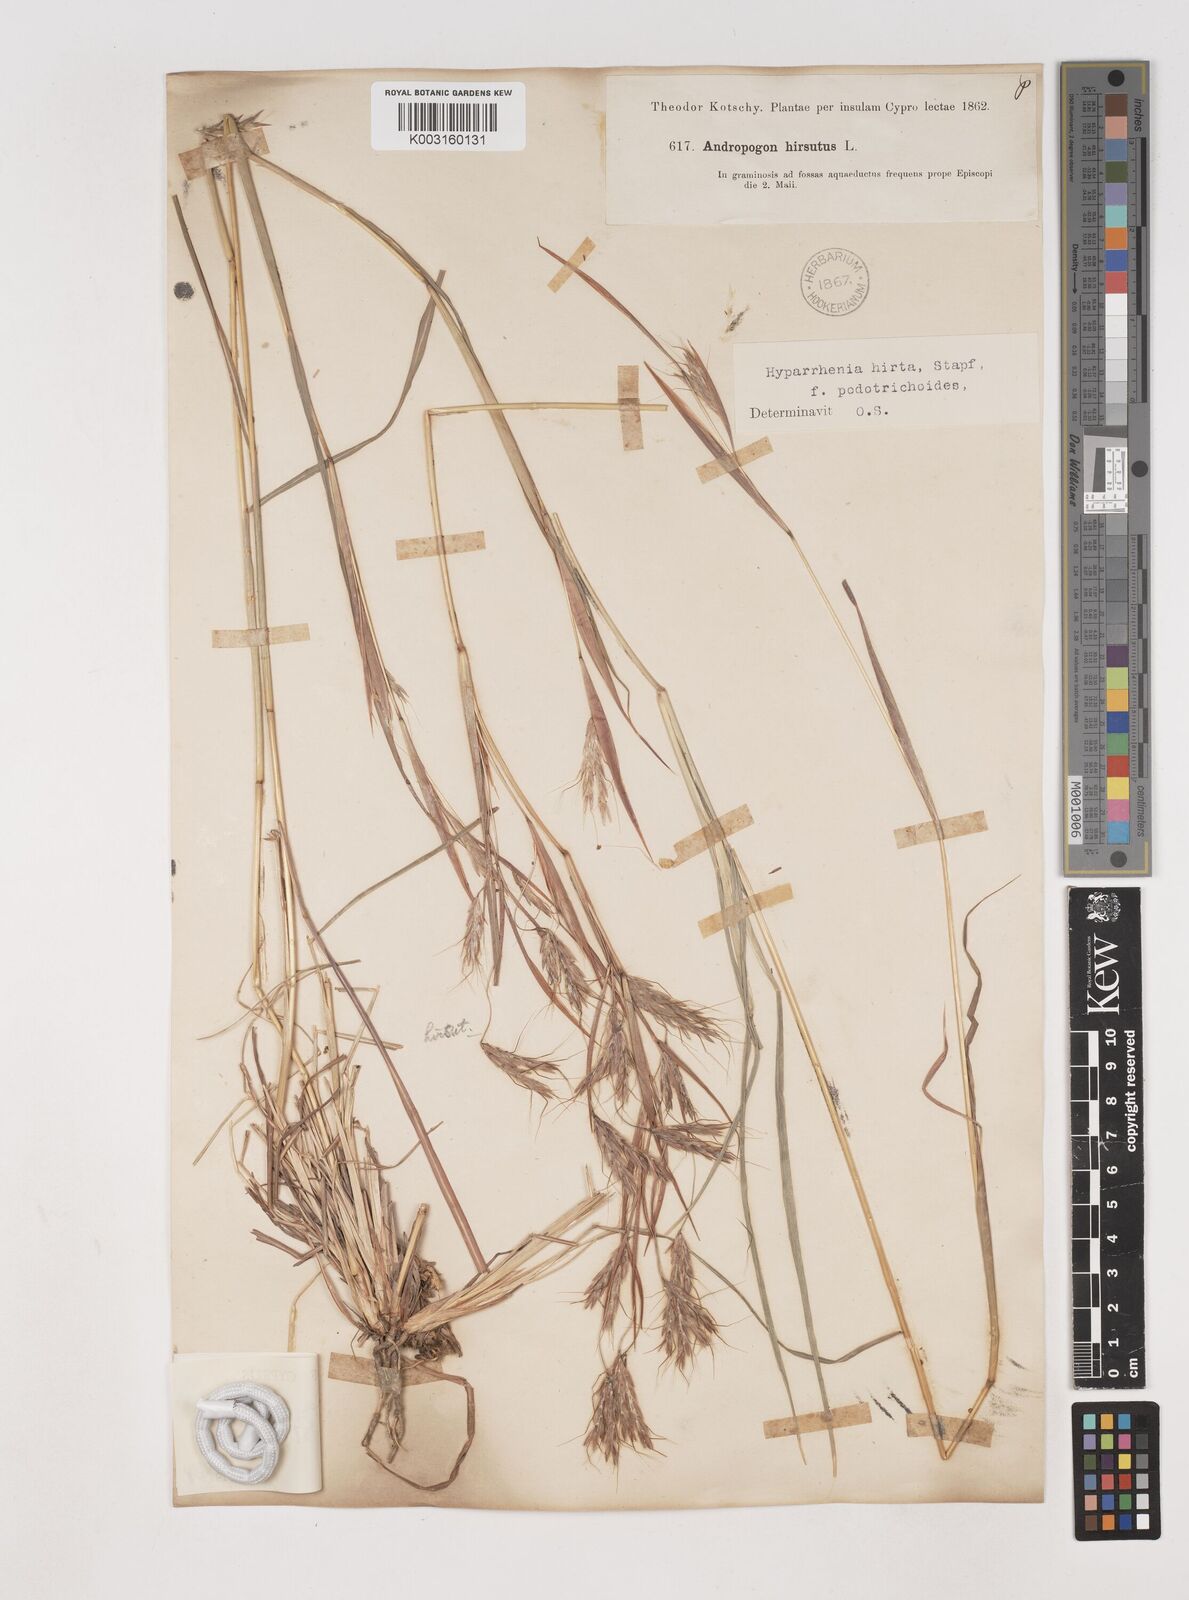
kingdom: Plantae
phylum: Tracheophyta
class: Liliopsida
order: Poales
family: Poaceae
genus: Hyparrhenia
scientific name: Hyparrhenia hirta
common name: Thatching grass
